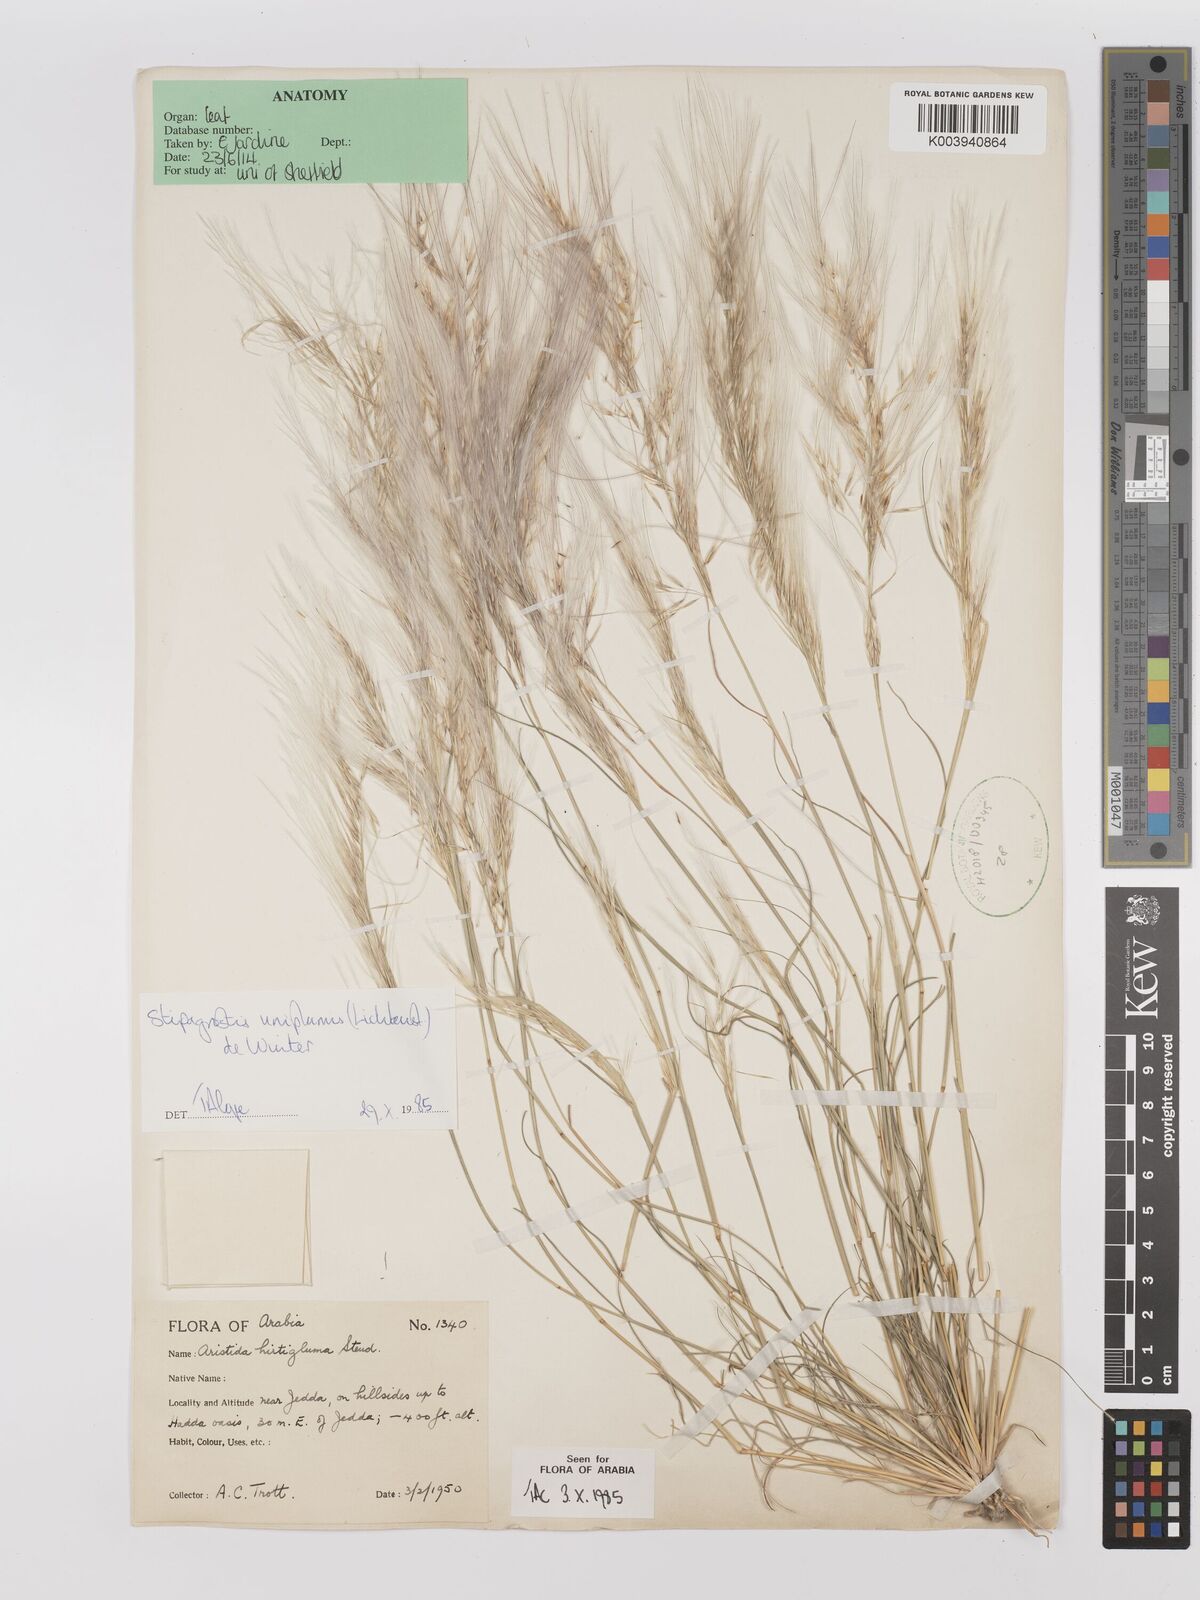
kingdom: Plantae
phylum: Tracheophyta
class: Liliopsida
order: Poales
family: Poaceae
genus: Stipagrostis
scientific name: Stipagrostis uniplumis
